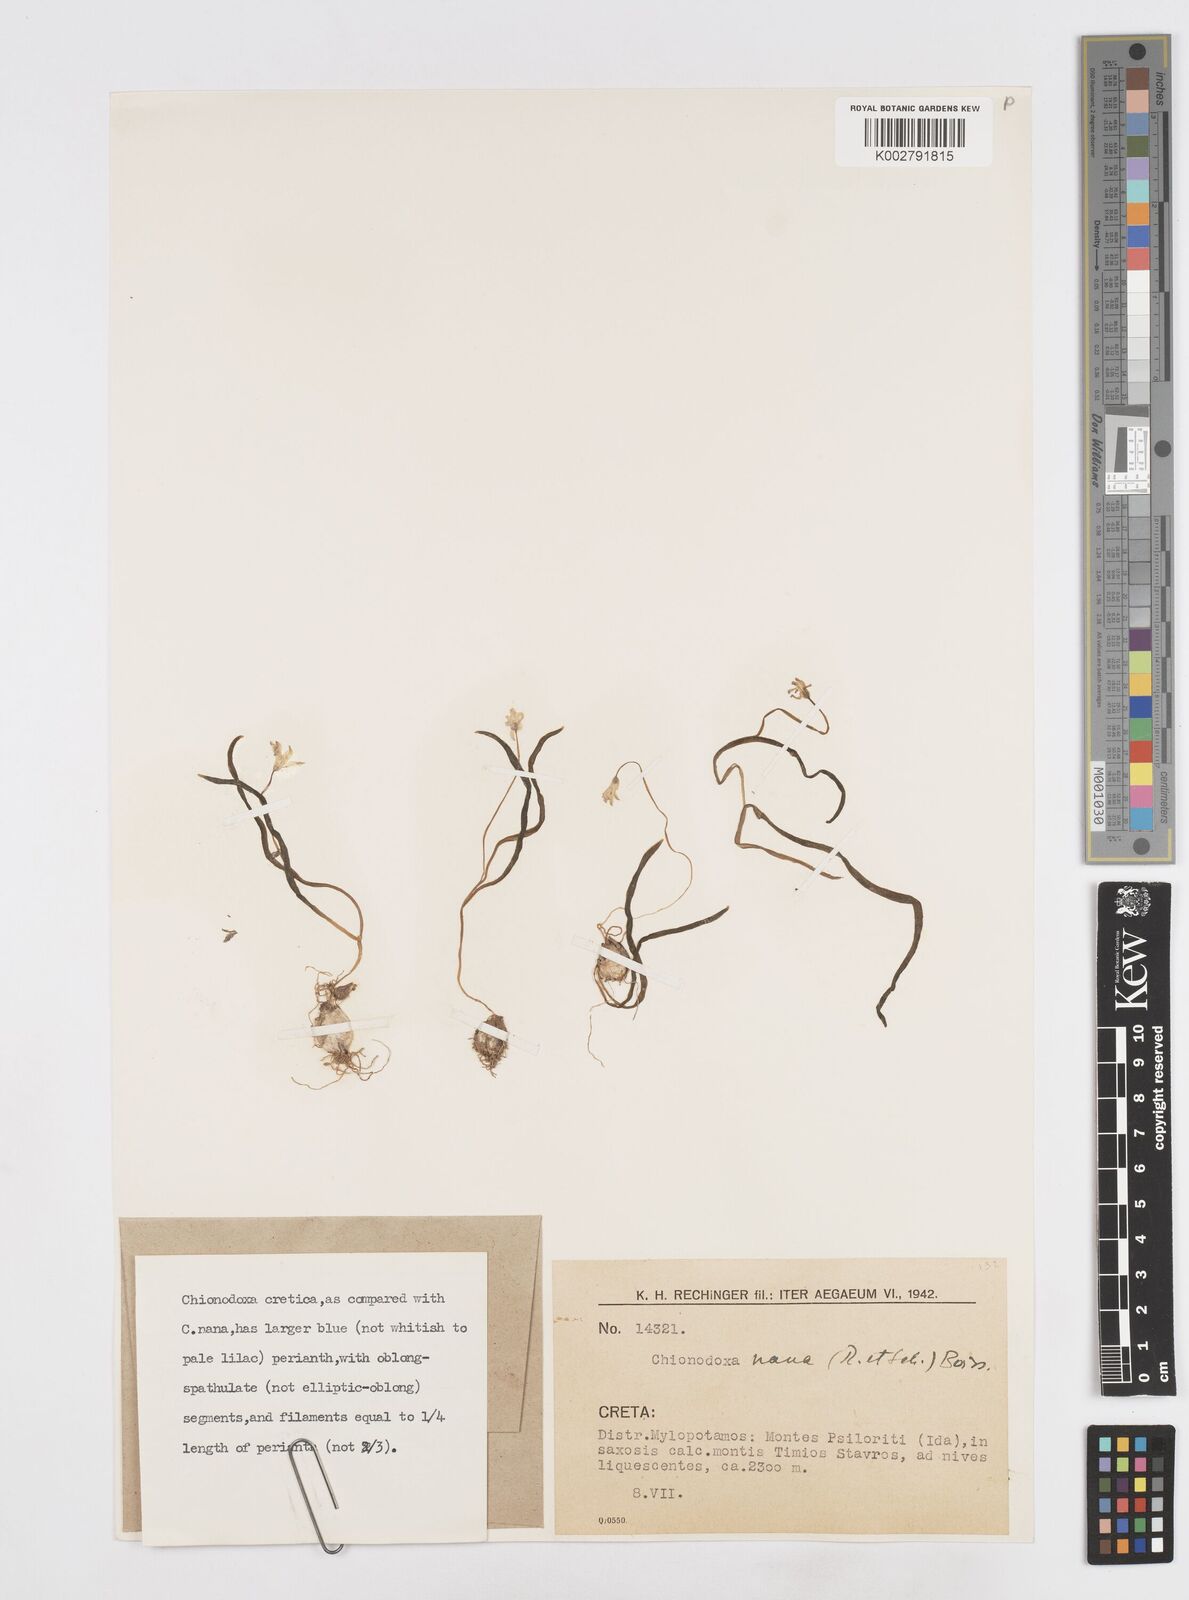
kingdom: Plantae
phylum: Tracheophyta
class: Liliopsida
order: Asparagales
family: Asparagaceae
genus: Scilla
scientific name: Scilla cretica
